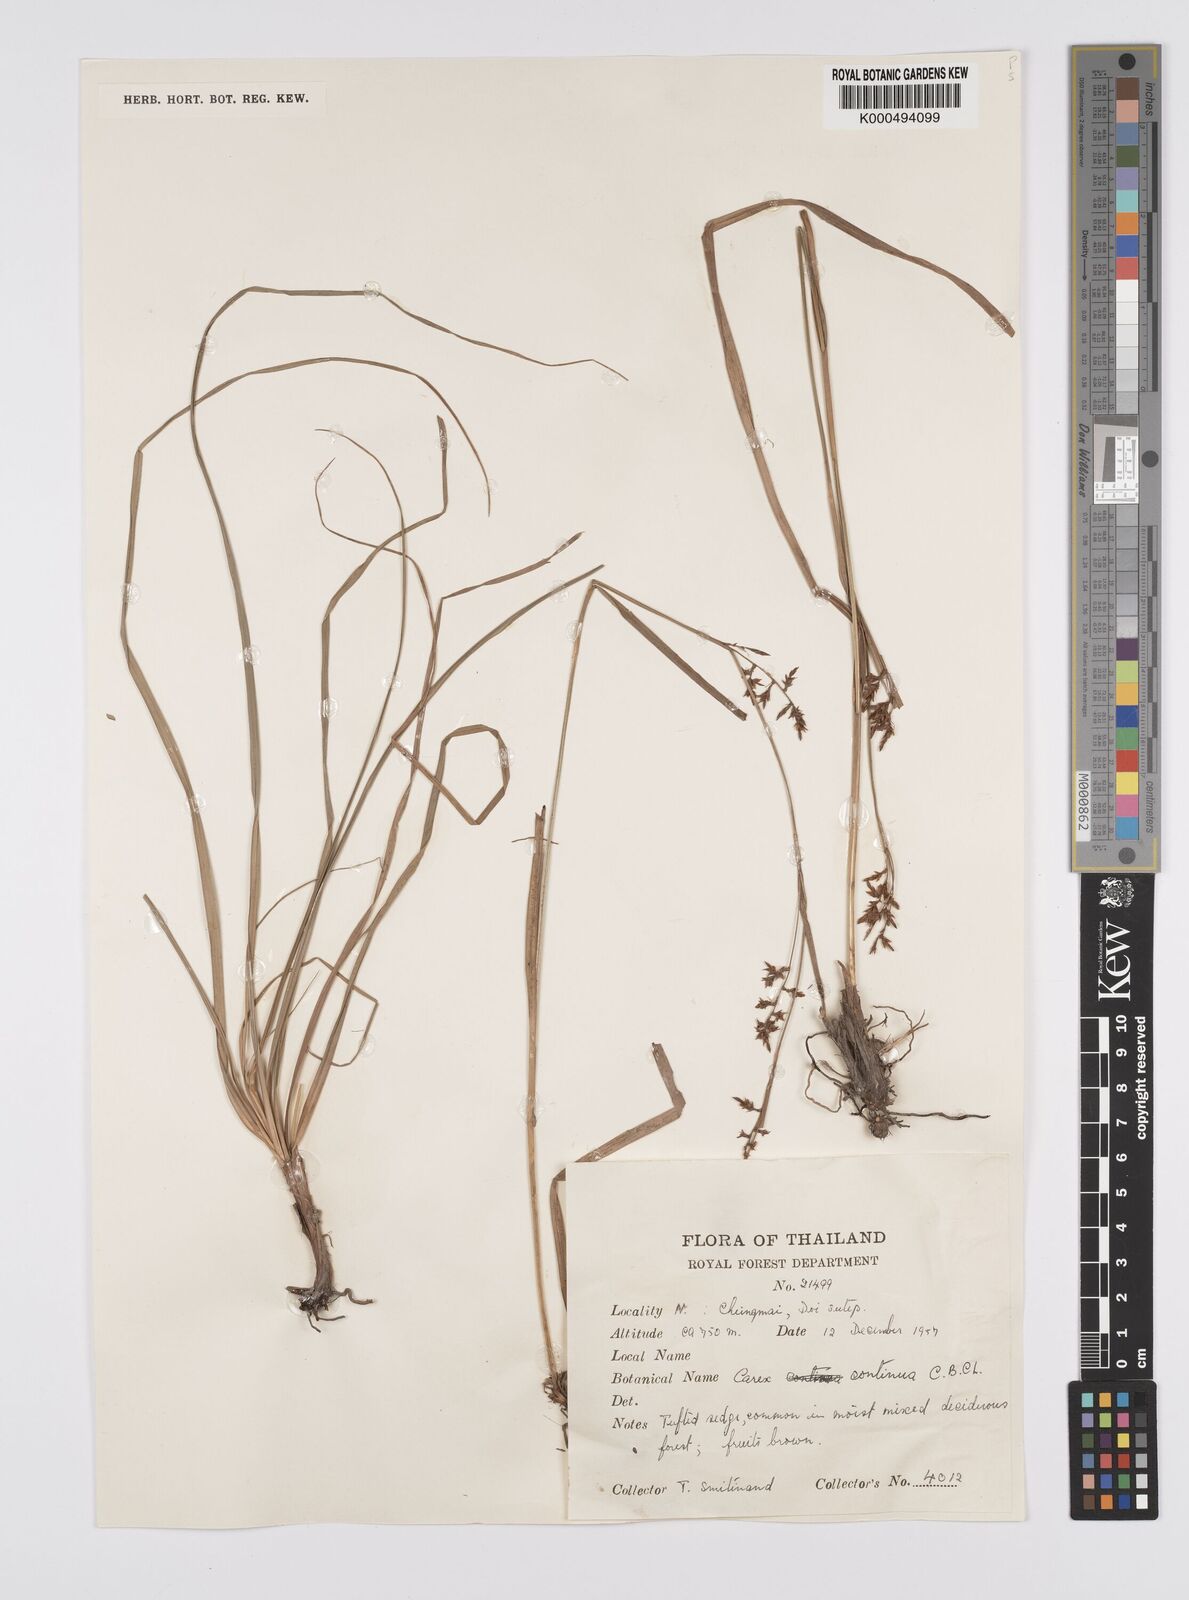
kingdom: Plantae
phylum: Tracheophyta
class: Liliopsida
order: Poales
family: Cyperaceae
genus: Carex
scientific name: Carex continua
